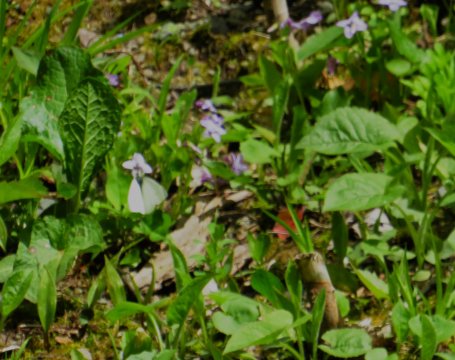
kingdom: Animalia
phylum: Arthropoda
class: Insecta
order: Lepidoptera
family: Pieridae
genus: Pieris
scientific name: Pieris virginiensis
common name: West Virginia White
